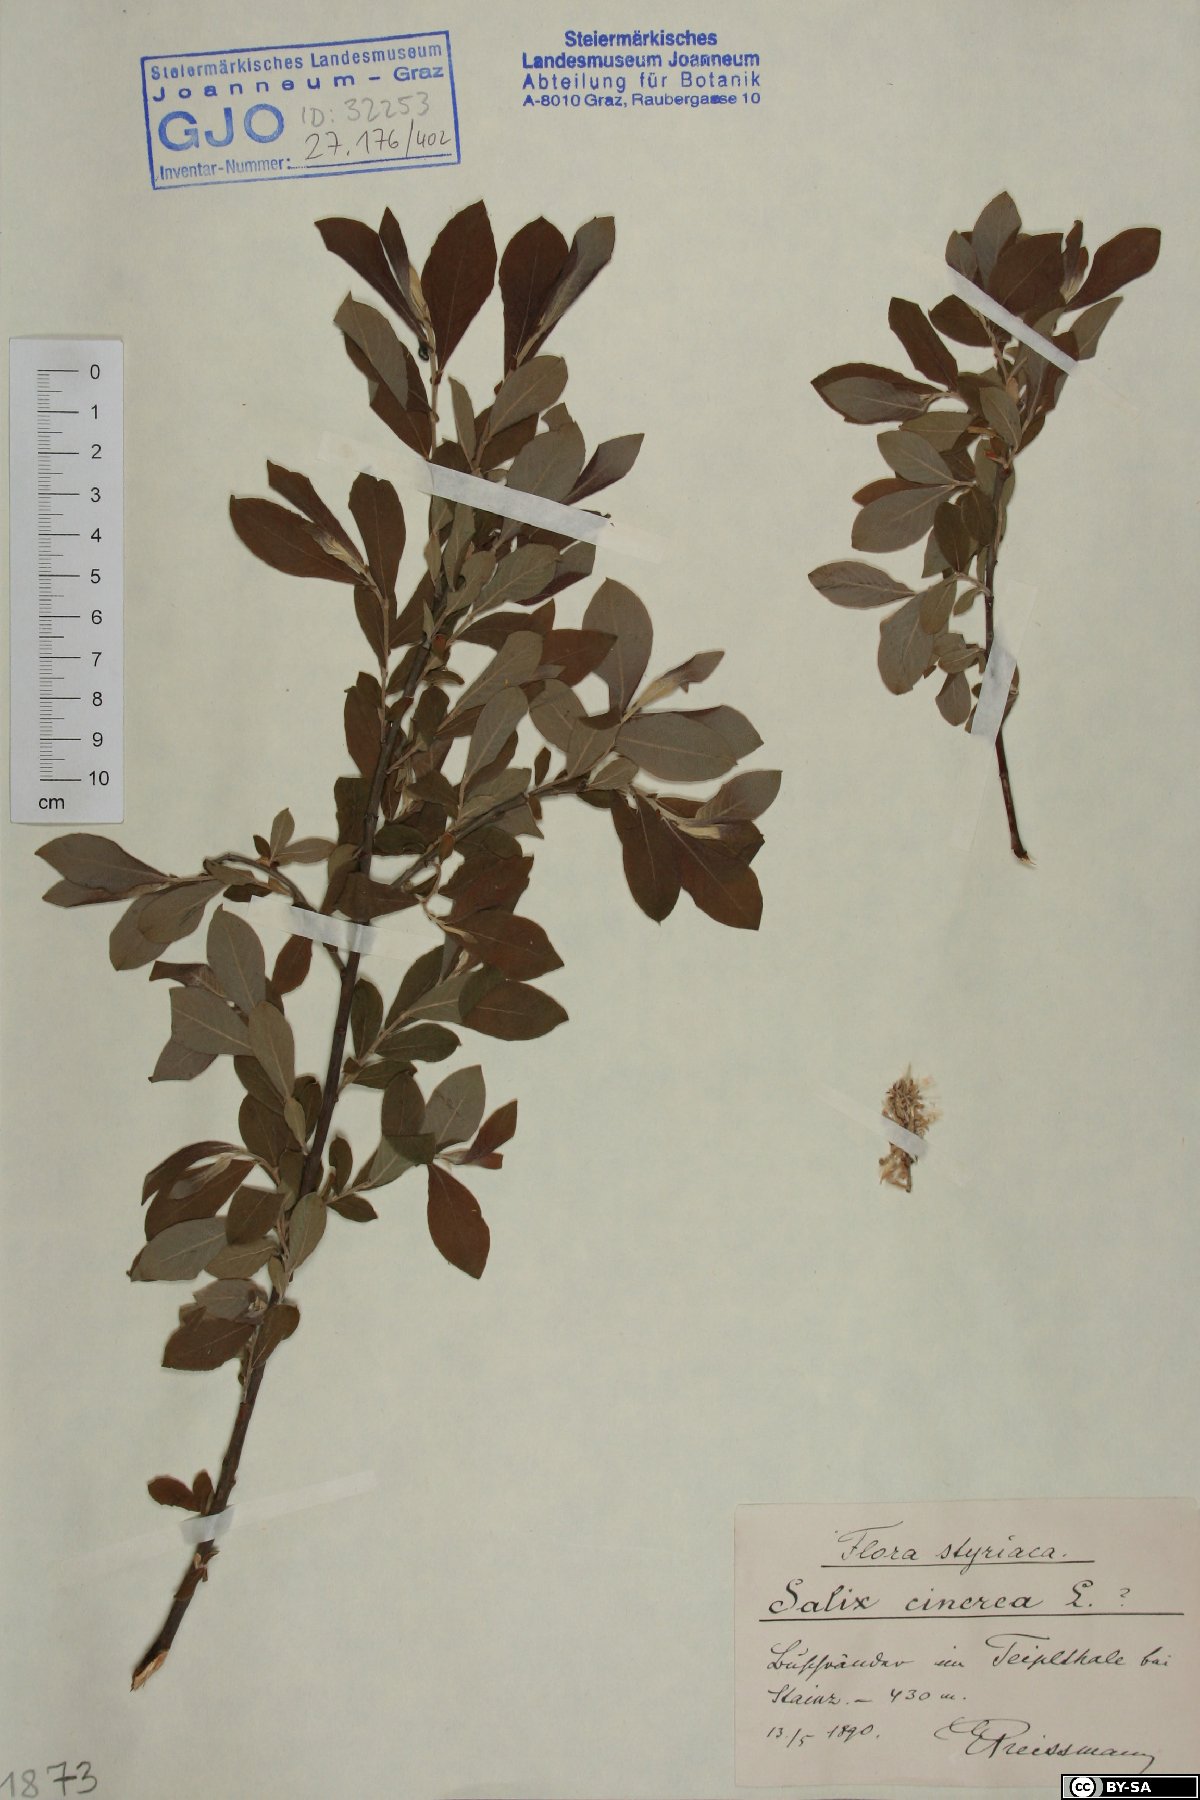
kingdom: Plantae
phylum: Tracheophyta
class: Magnoliopsida
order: Malpighiales
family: Salicaceae
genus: Salix
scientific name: Salix cinerea
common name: Common sallow
